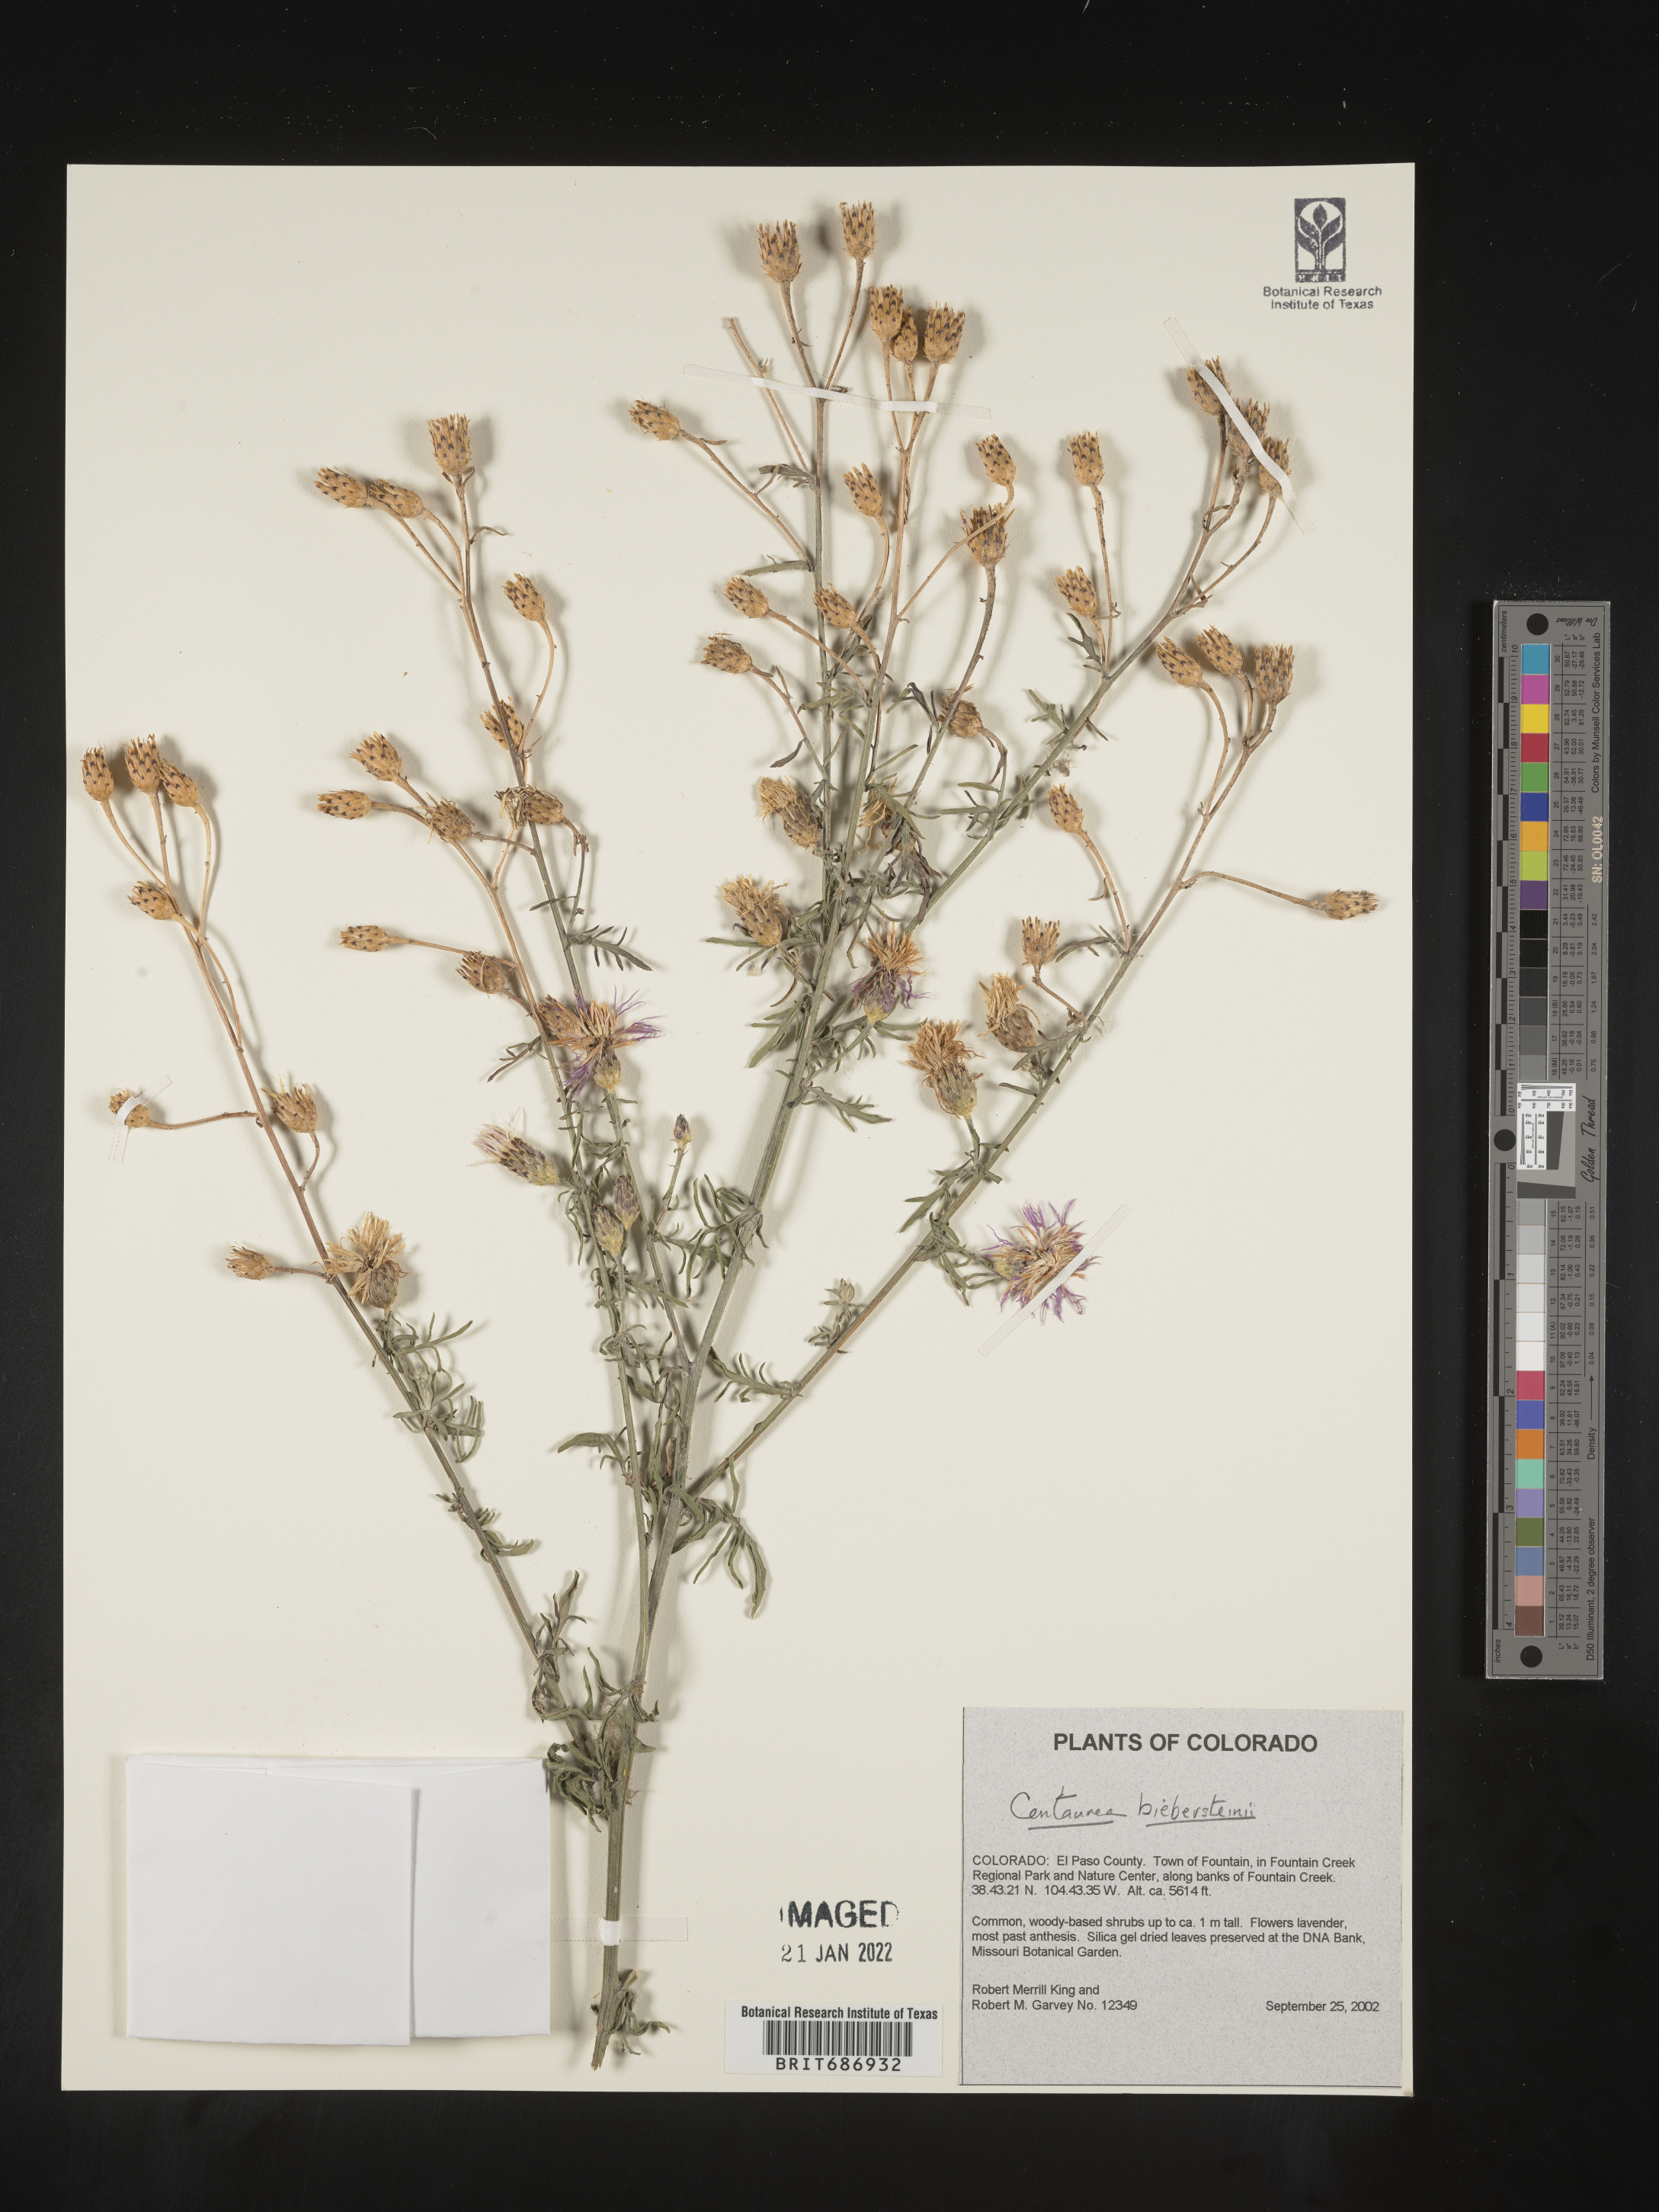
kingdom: Plantae
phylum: Tracheophyta
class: Magnoliopsida
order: Asterales
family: Asteraceae
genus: Centaurea
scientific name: Centaurea
